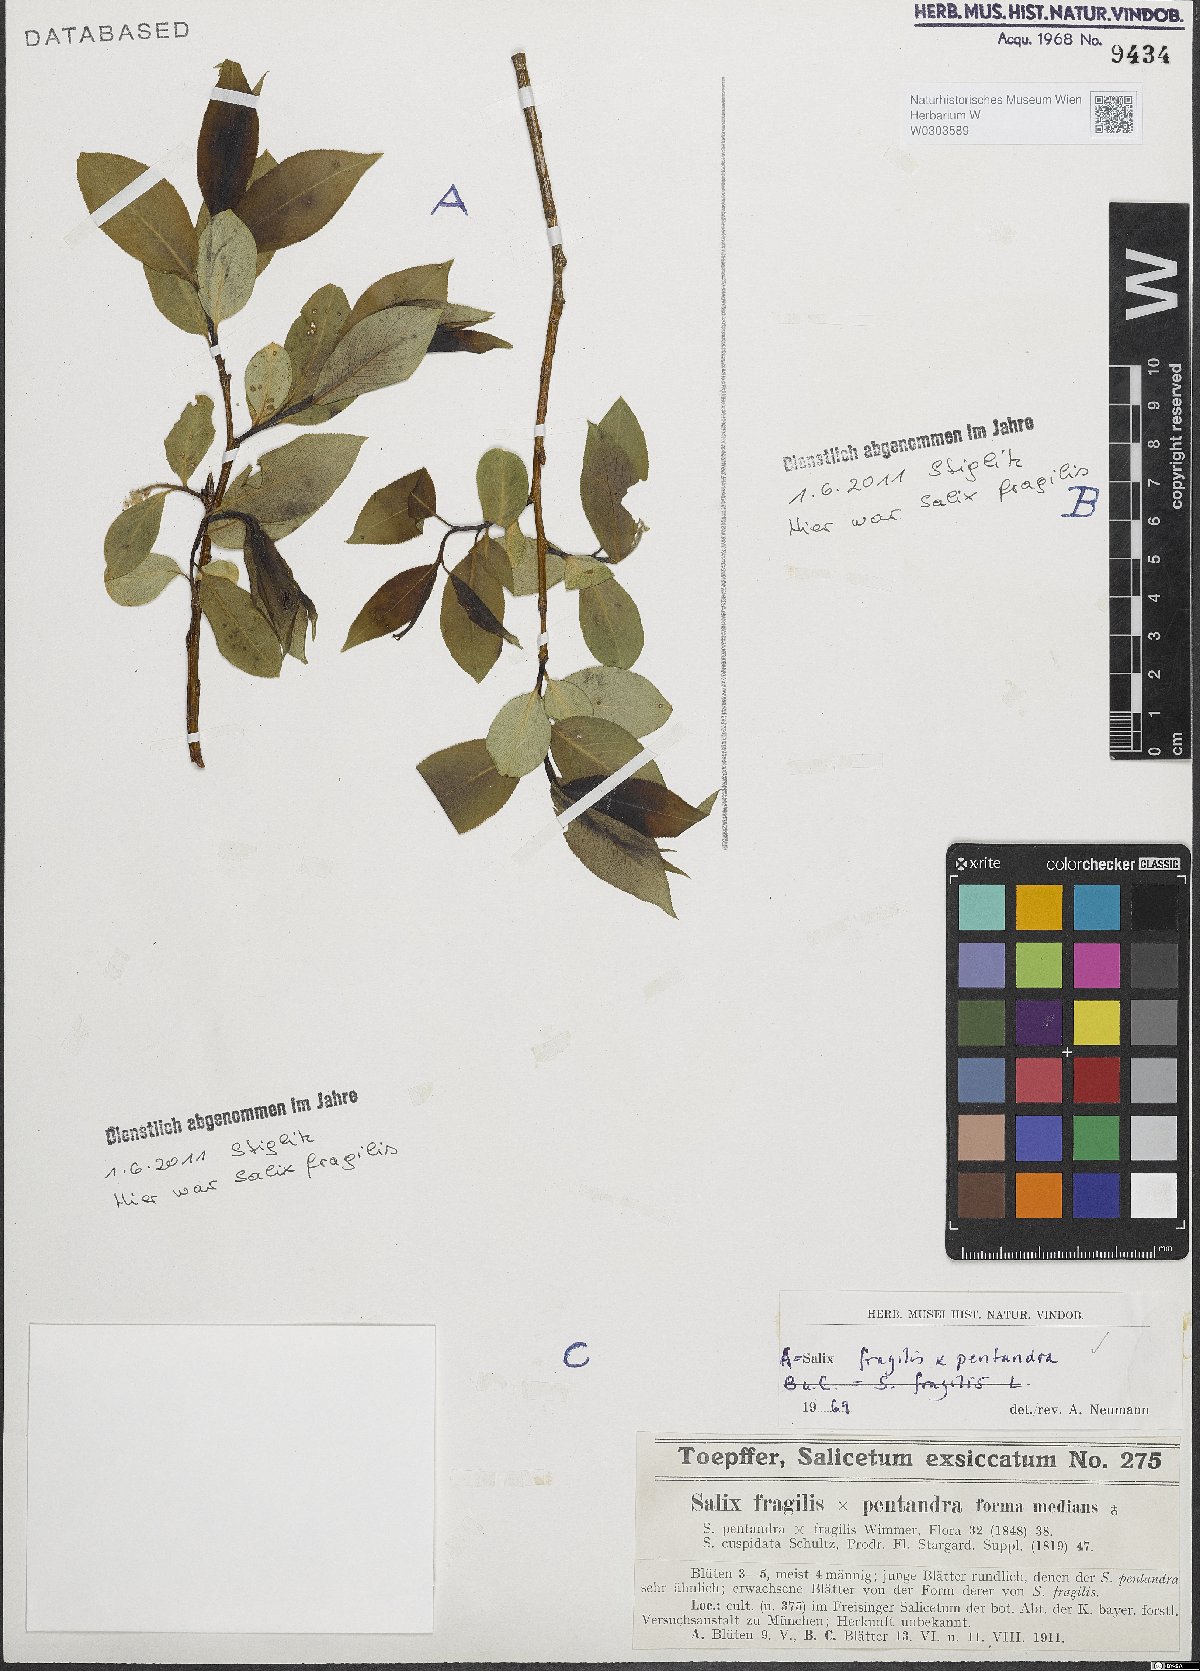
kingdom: Plantae
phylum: Tracheophyta
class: Magnoliopsida
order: Malpighiales
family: Salicaceae
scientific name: Salicaceae
